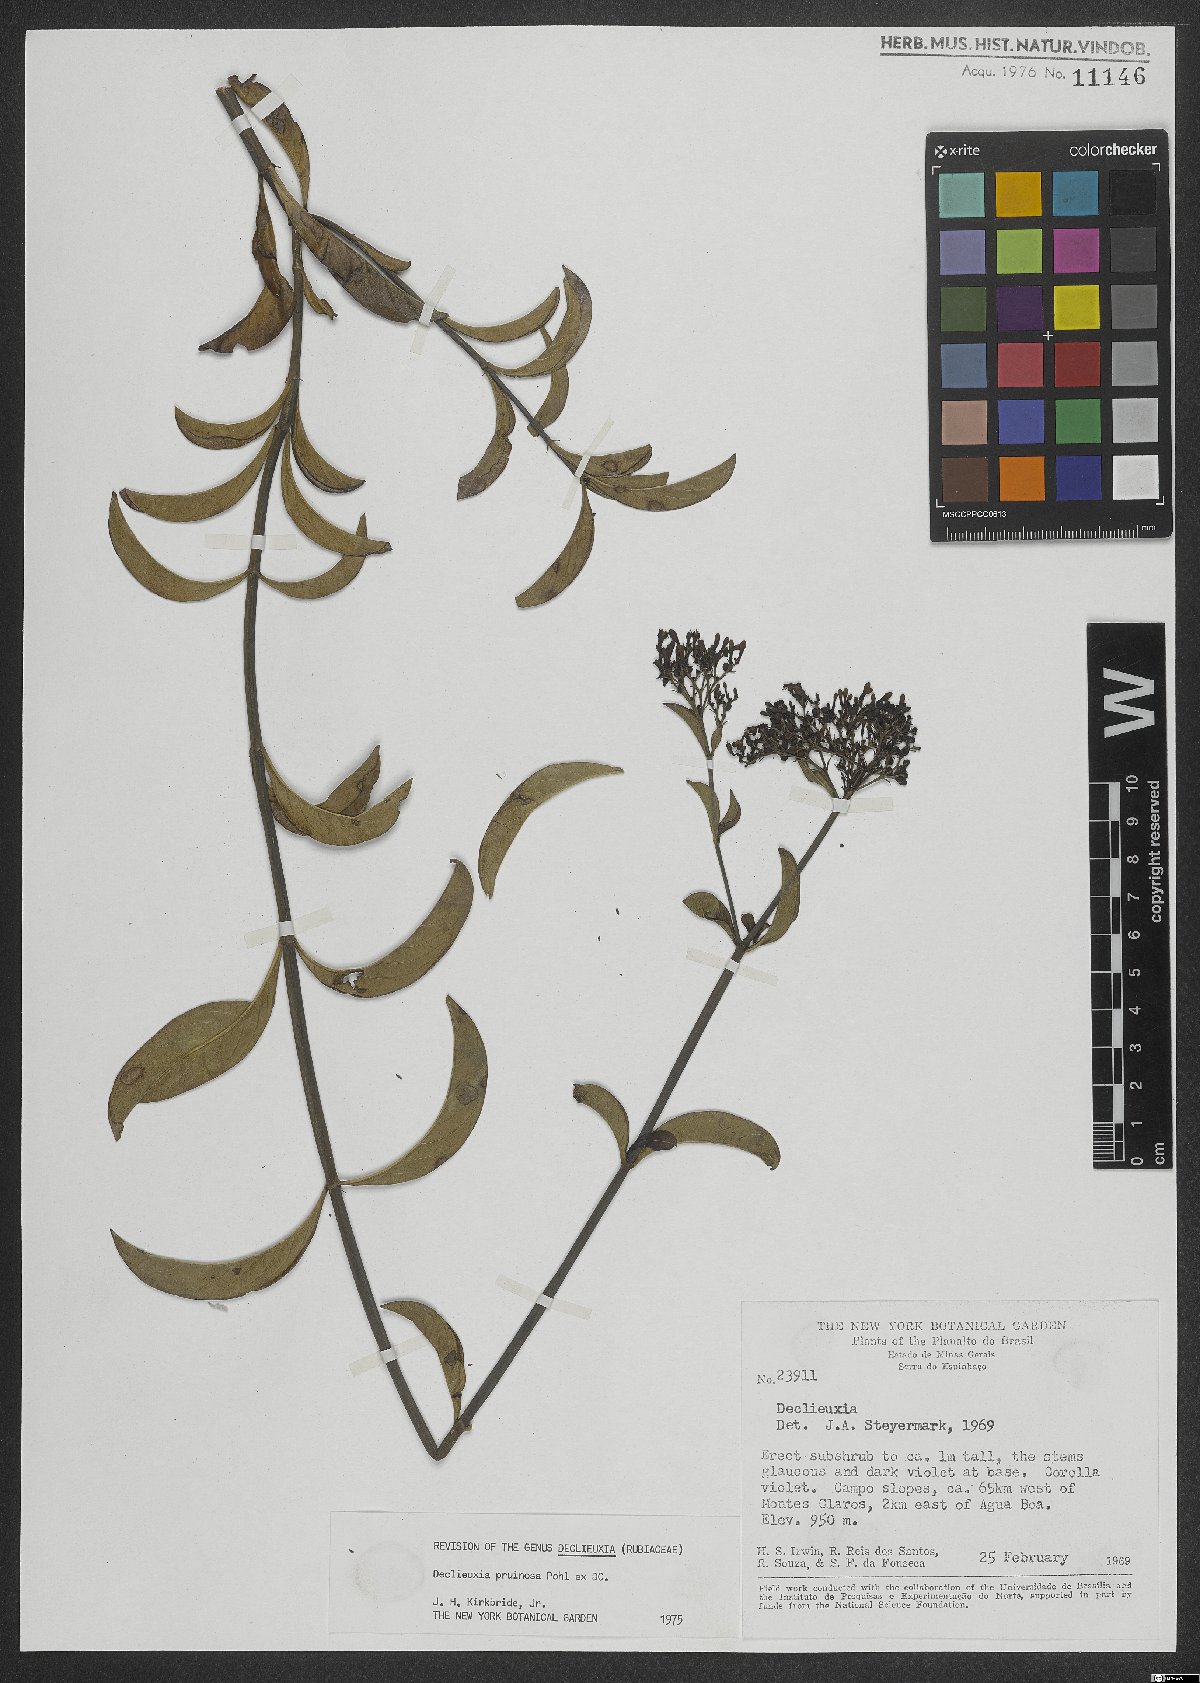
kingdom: Plantae
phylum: Tracheophyta
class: Magnoliopsida
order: Gentianales
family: Rubiaceae
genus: Declieuxia
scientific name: Declieuxia pruinosa
